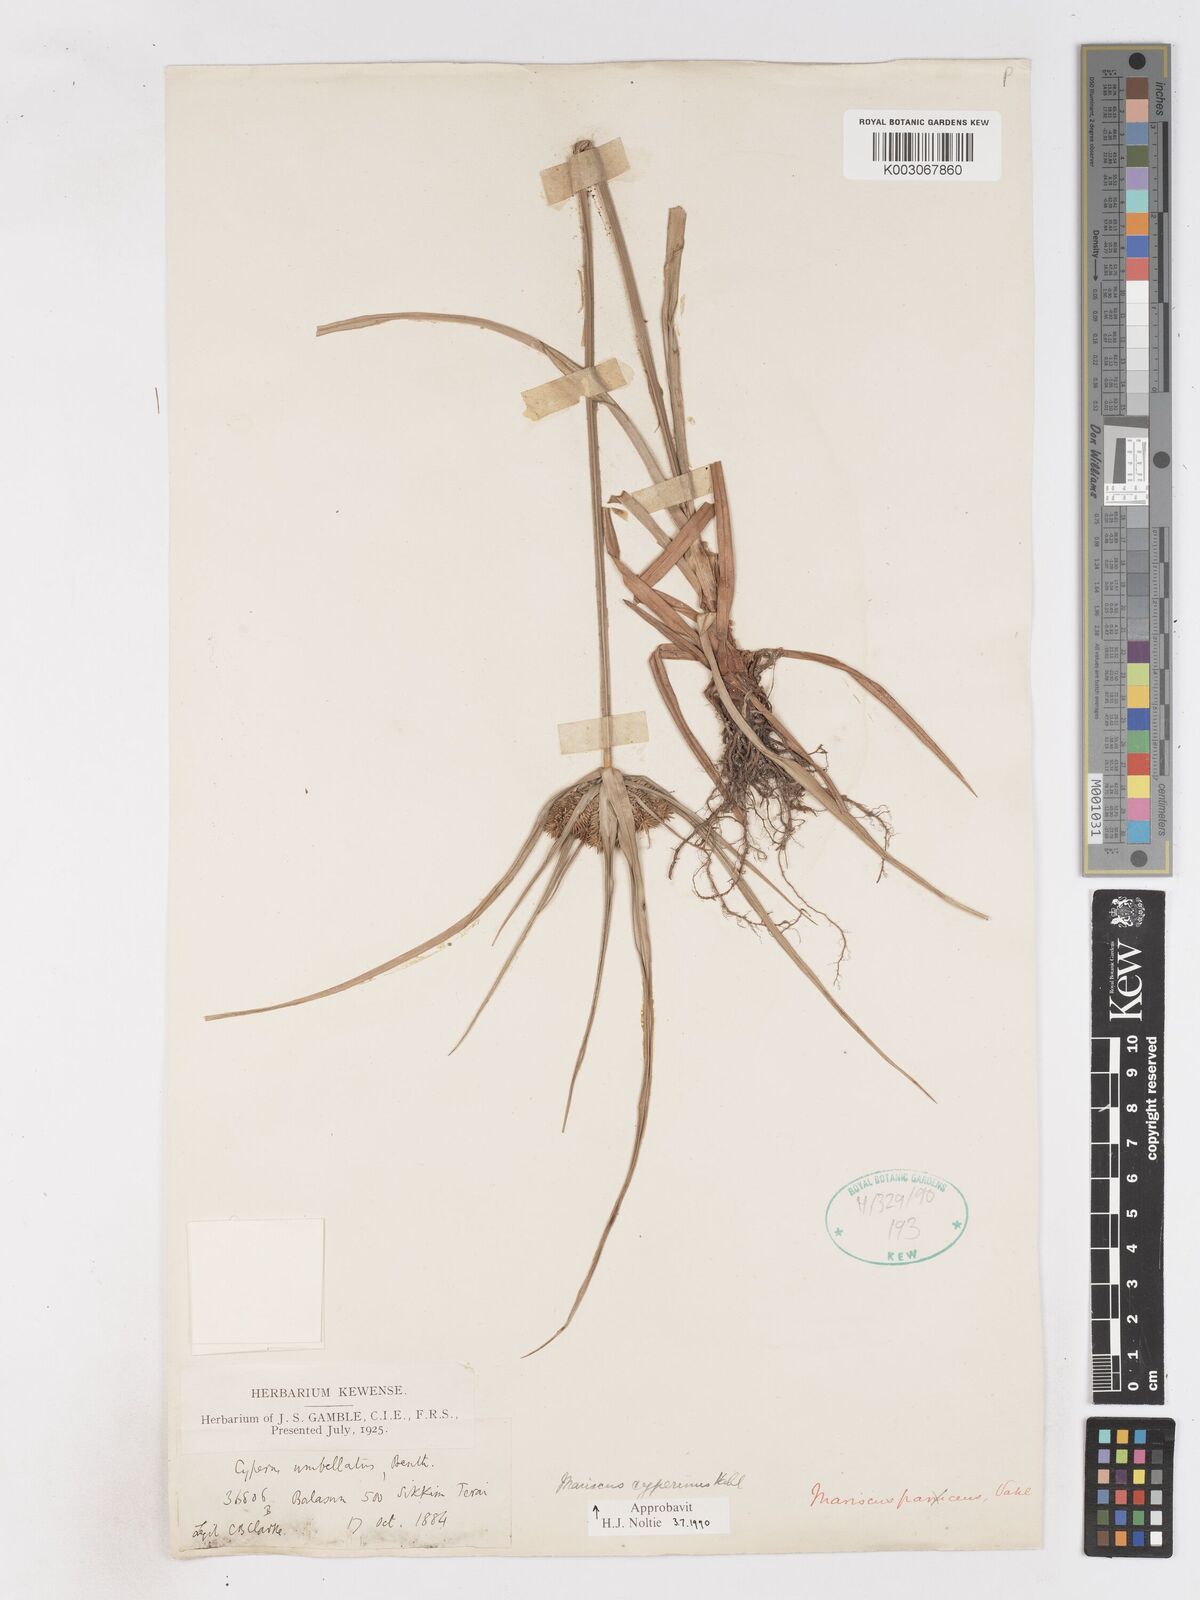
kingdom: Plantae
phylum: Tracheophyta
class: Liliopsida
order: Poales
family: Cyperaceae
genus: Cyperus
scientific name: Cyperus cyperinus
